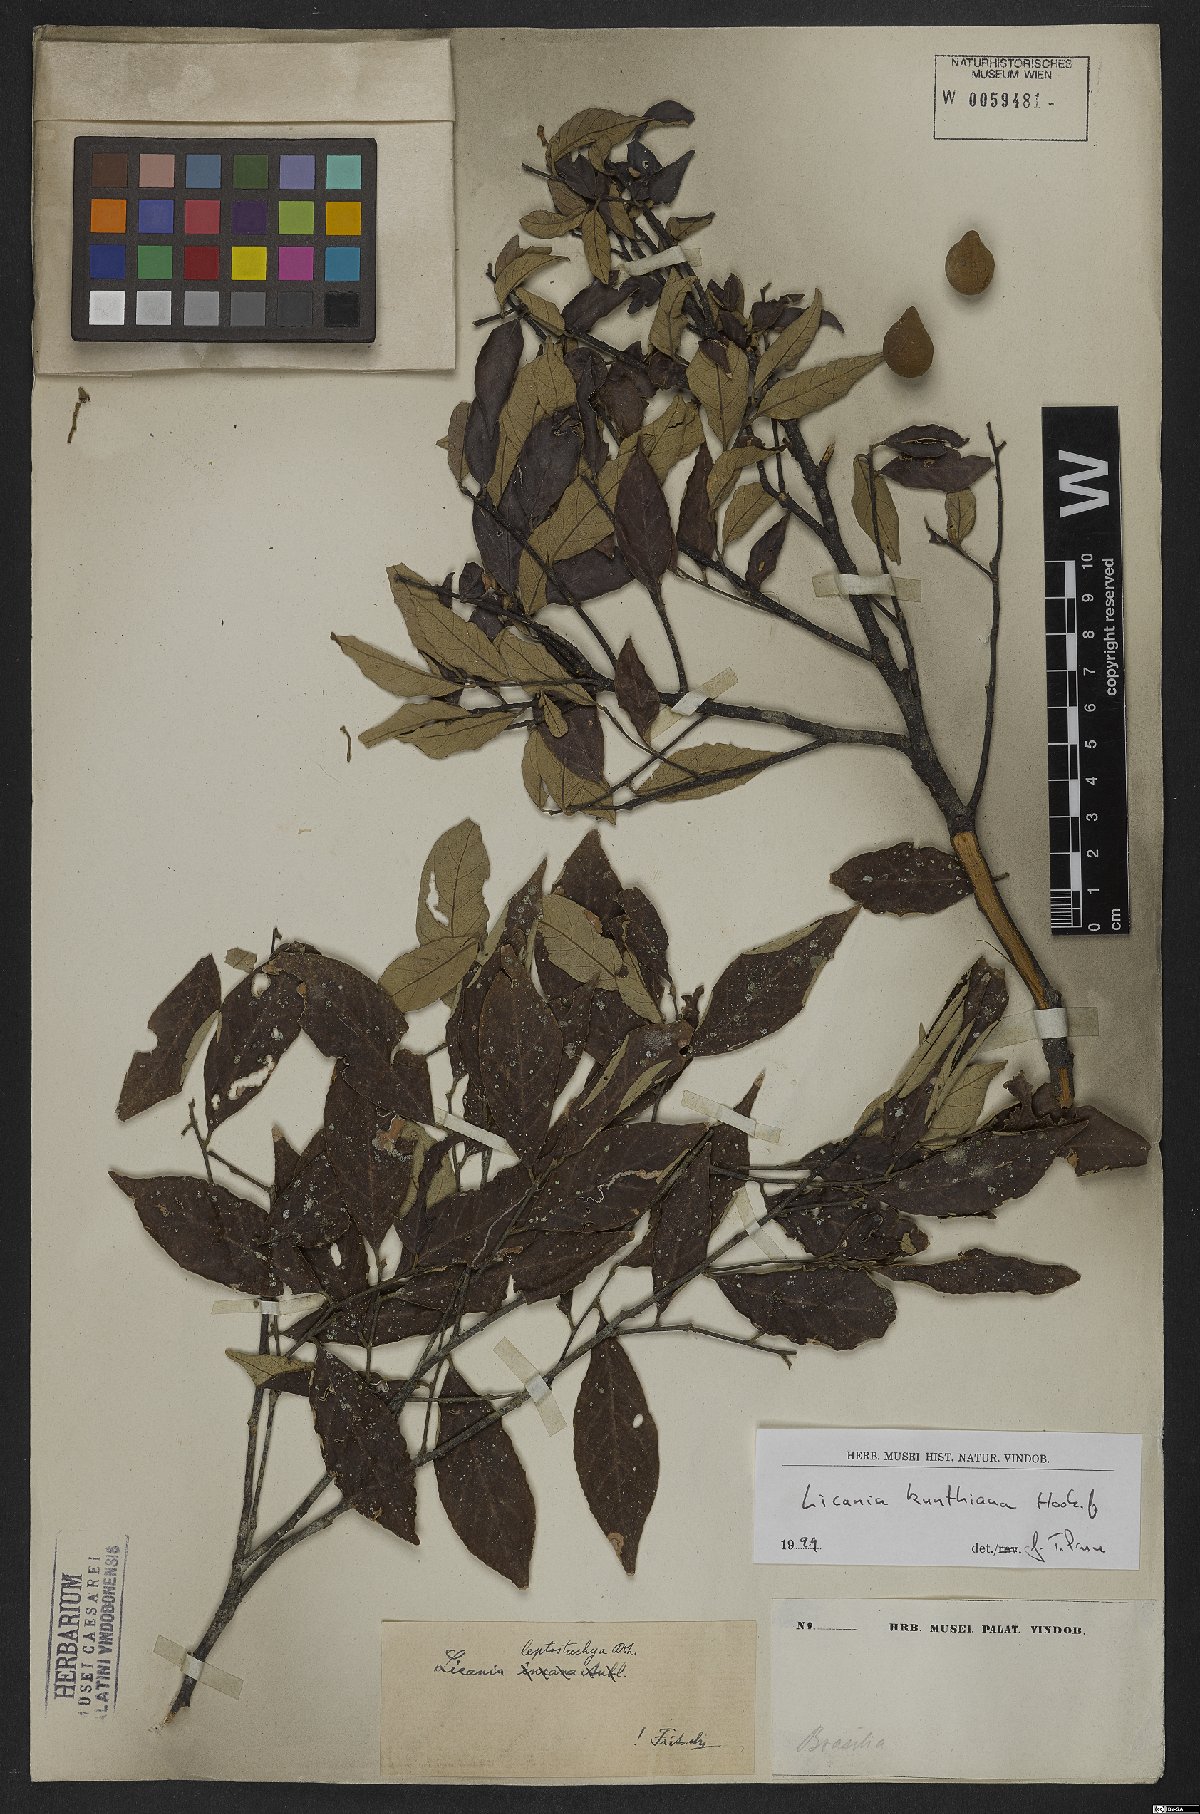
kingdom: Plantae
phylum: Tracheophyta
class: Magnoliopsida
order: Malpighiales
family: Chrysobalanaceae
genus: Licania
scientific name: Licania kunthiana
